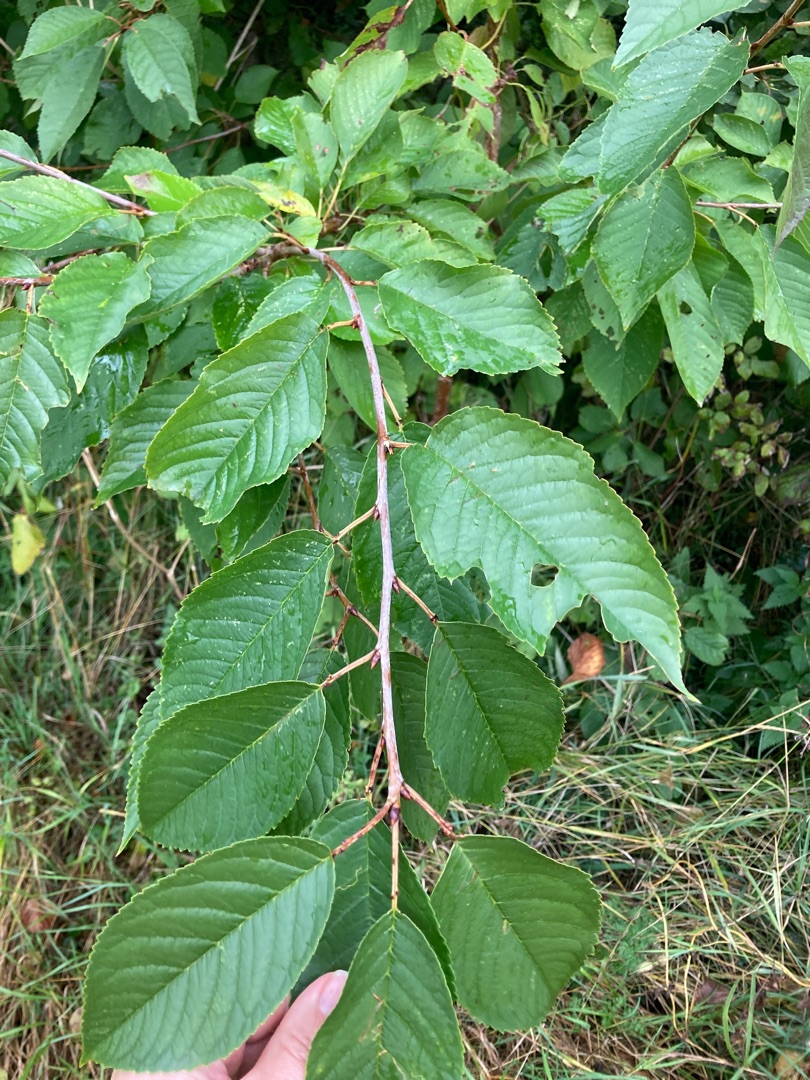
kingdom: Plantae
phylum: Tracheophyta
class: Magnoliopsida
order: Rosales
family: Rosaceae
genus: Prunus
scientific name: Prunus avium
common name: Fugle-kirsebær
